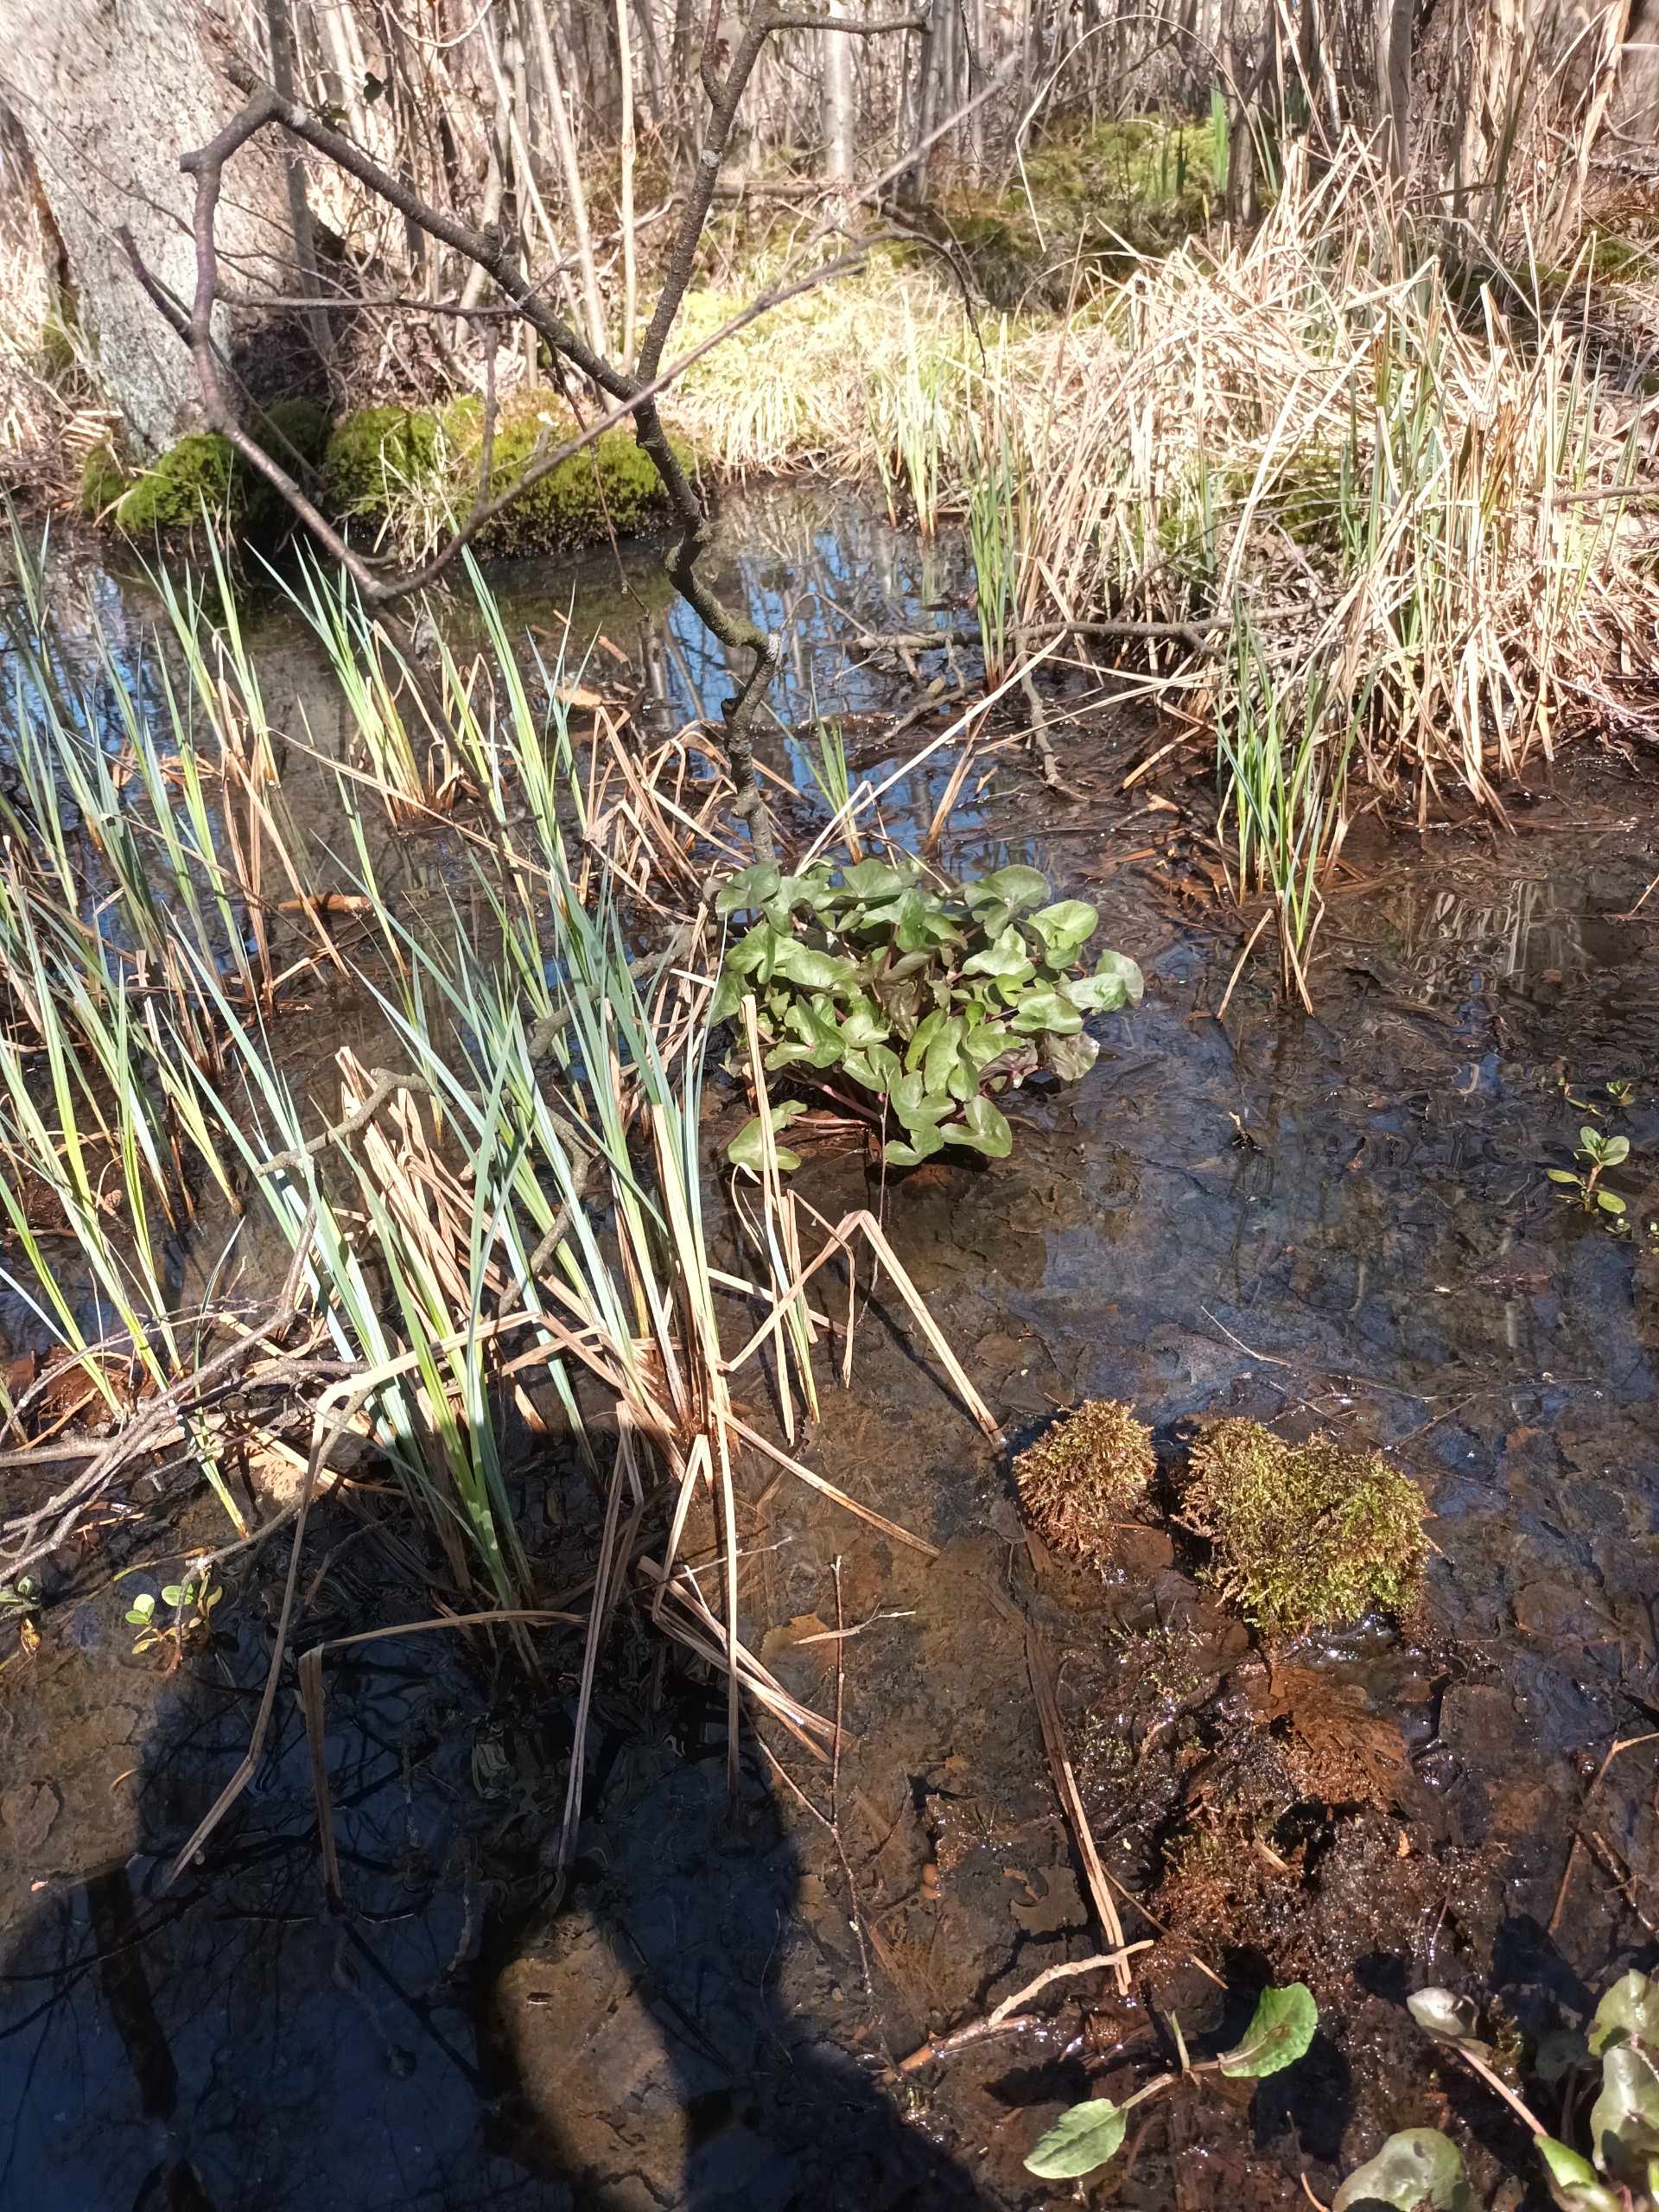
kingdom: Plantae
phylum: Tracheophyta
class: Magnoliopsida
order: Ranunculales
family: Ranunculaceae
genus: Caltha
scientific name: Caltha palustris
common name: Eng-kabbeleje
